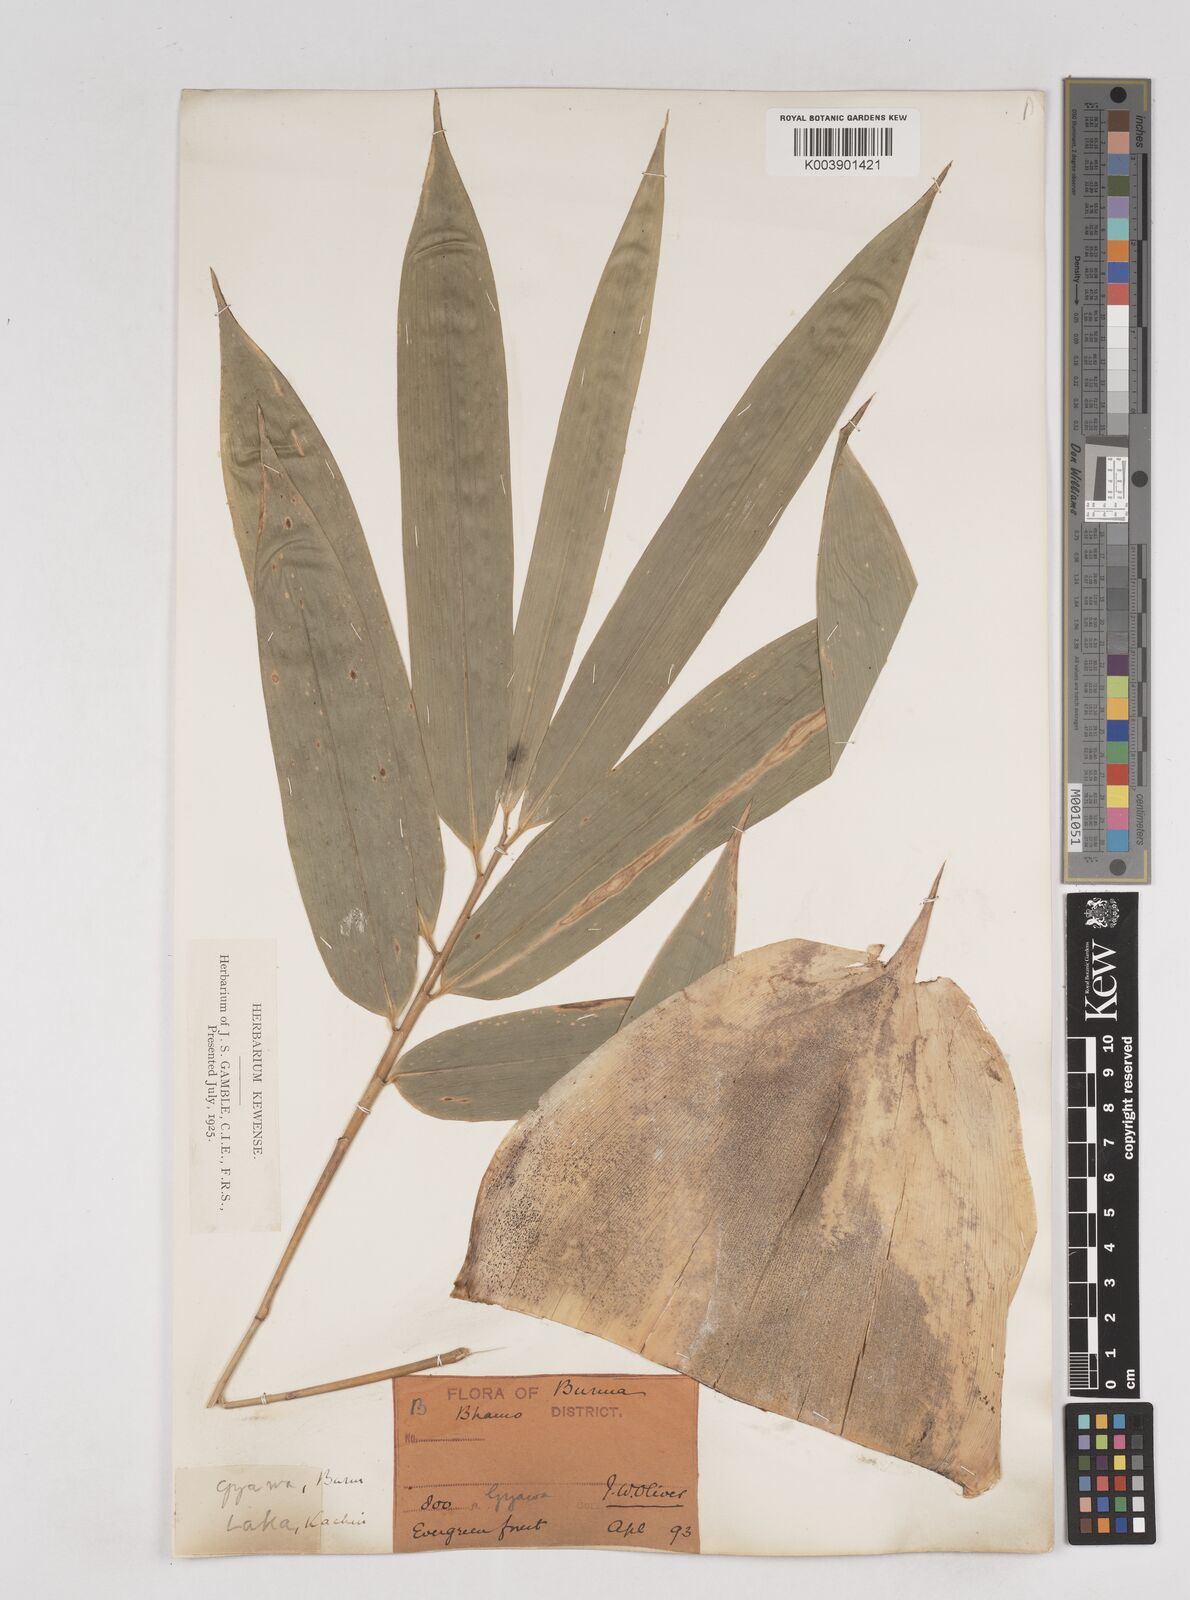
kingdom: Plantae
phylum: Tracheophyta
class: Liliopsida
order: Poales
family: Poaceae
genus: Schizostachyum
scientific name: Schizostachyum tavoyanum
